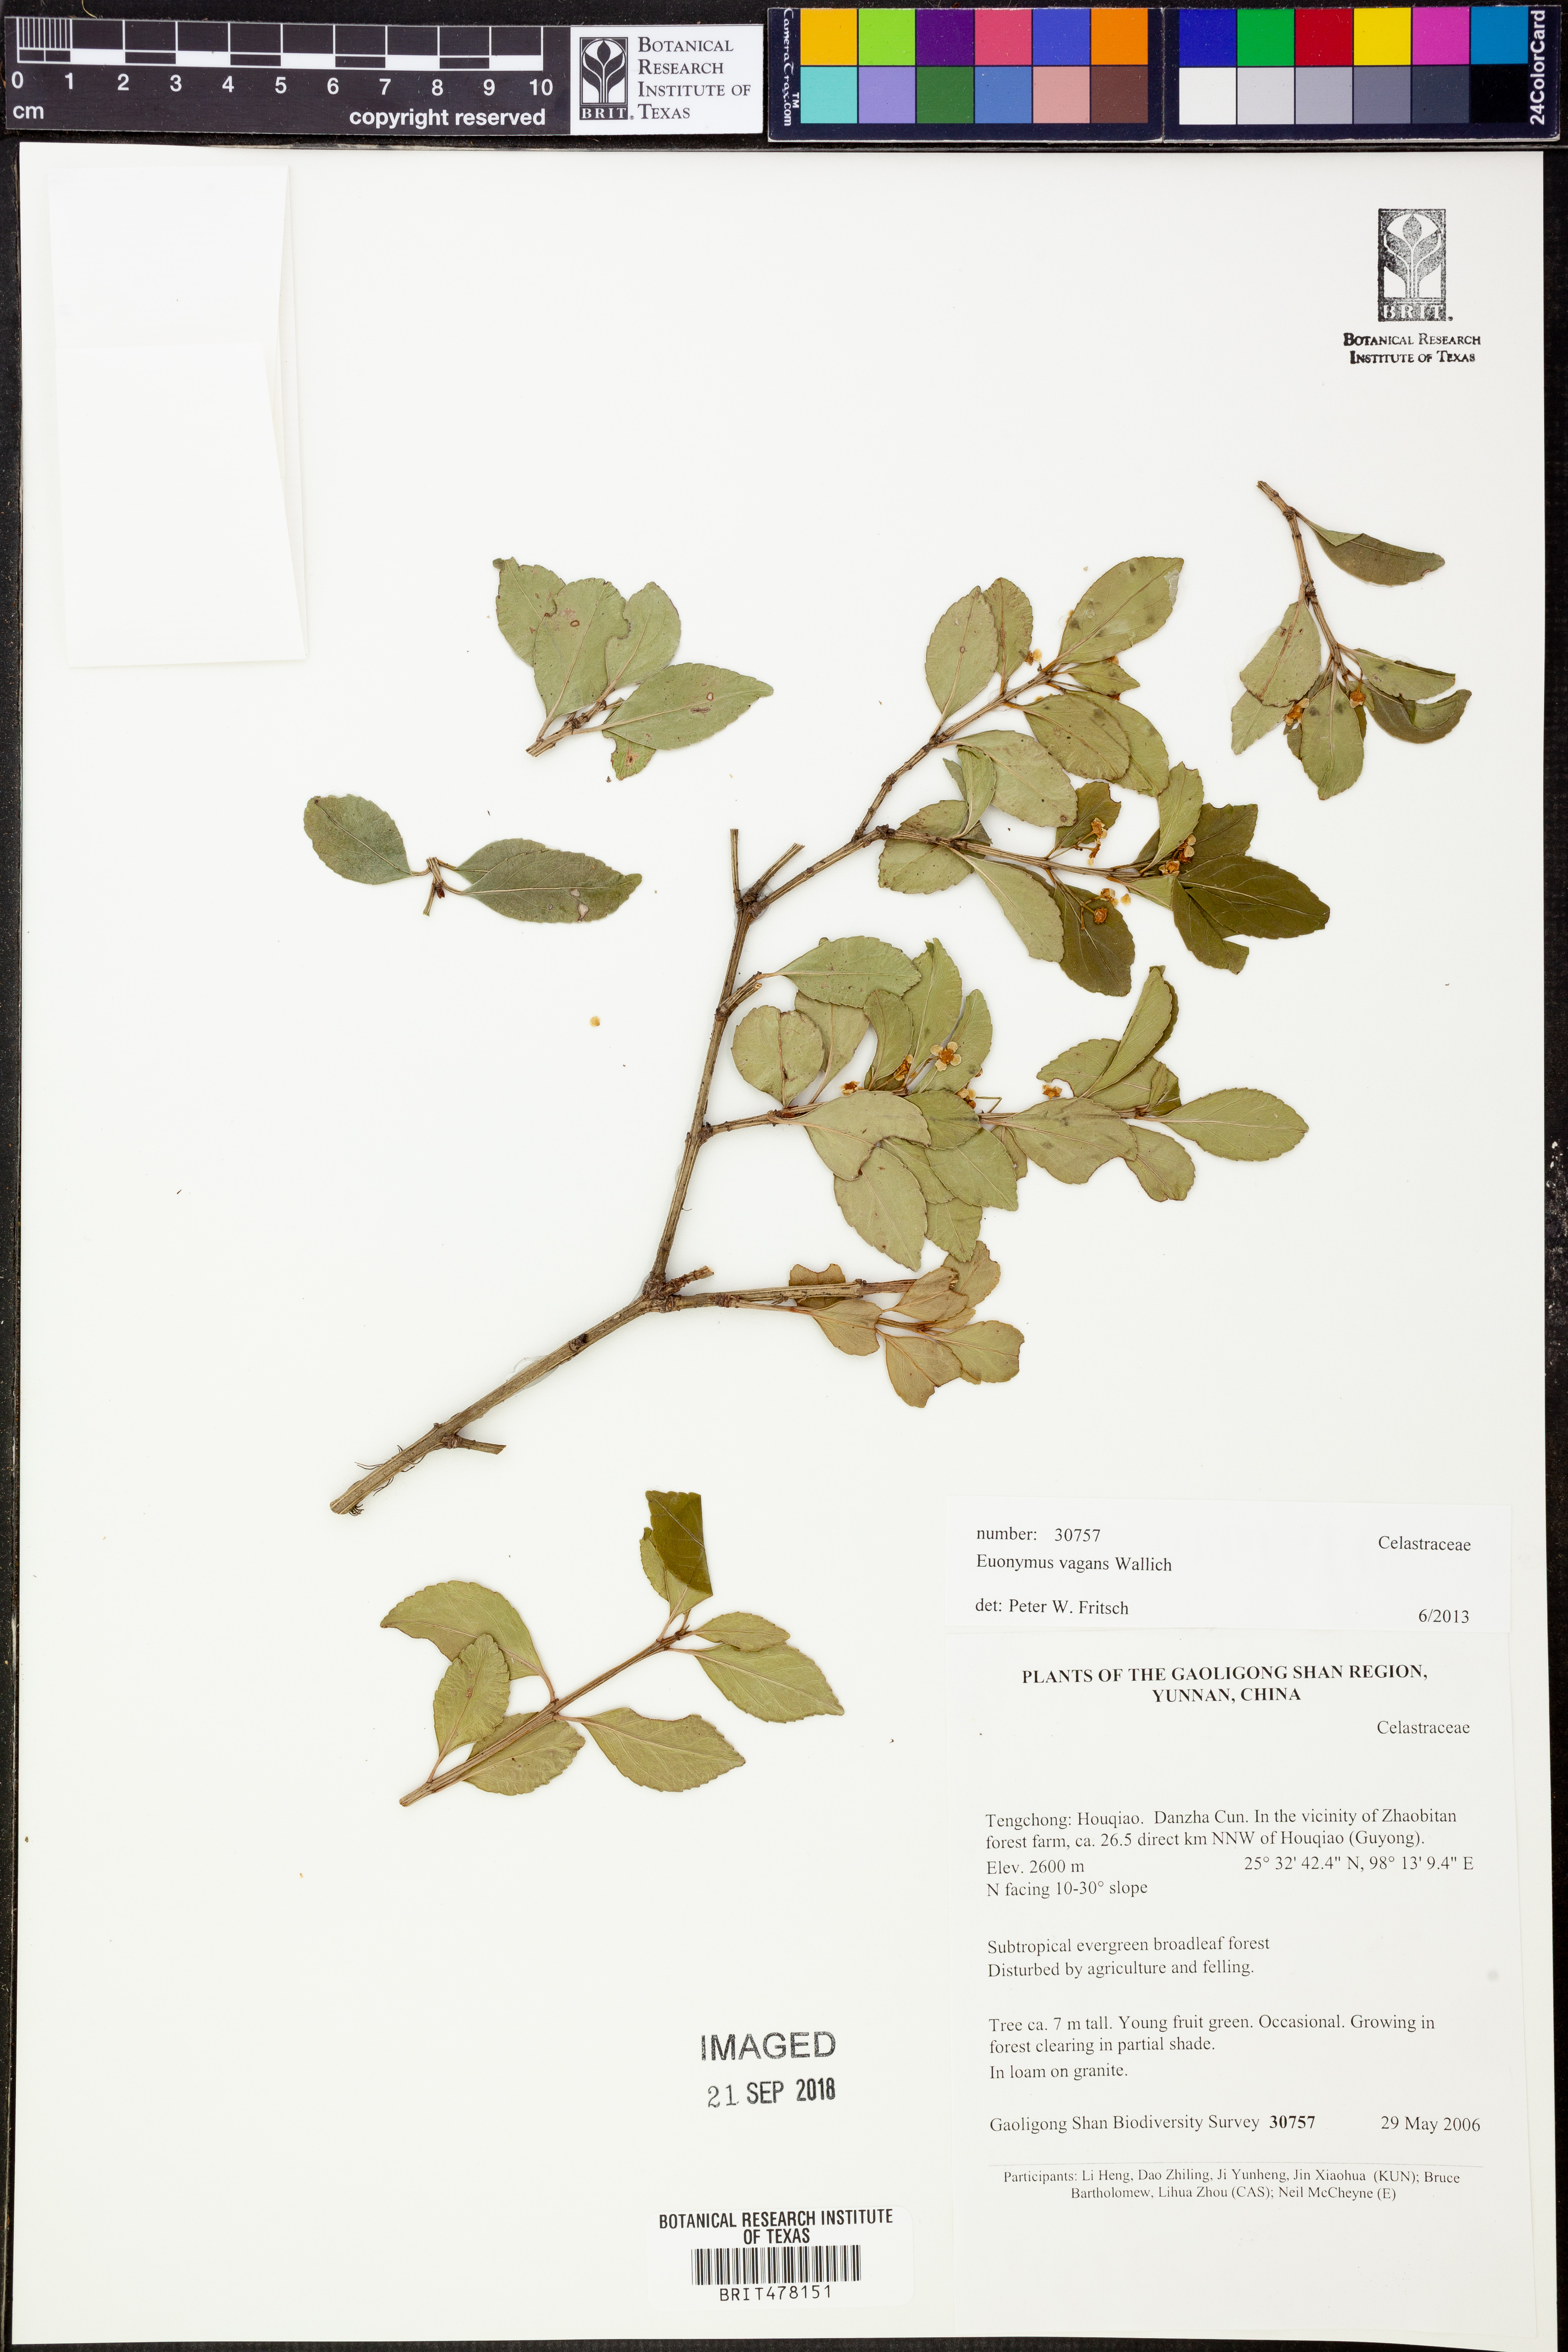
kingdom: Plantae
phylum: Tracheophyta
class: Magnoliopsida
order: Celastrales
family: Celastraceae
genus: Euonymus
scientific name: Euonymus vagans
